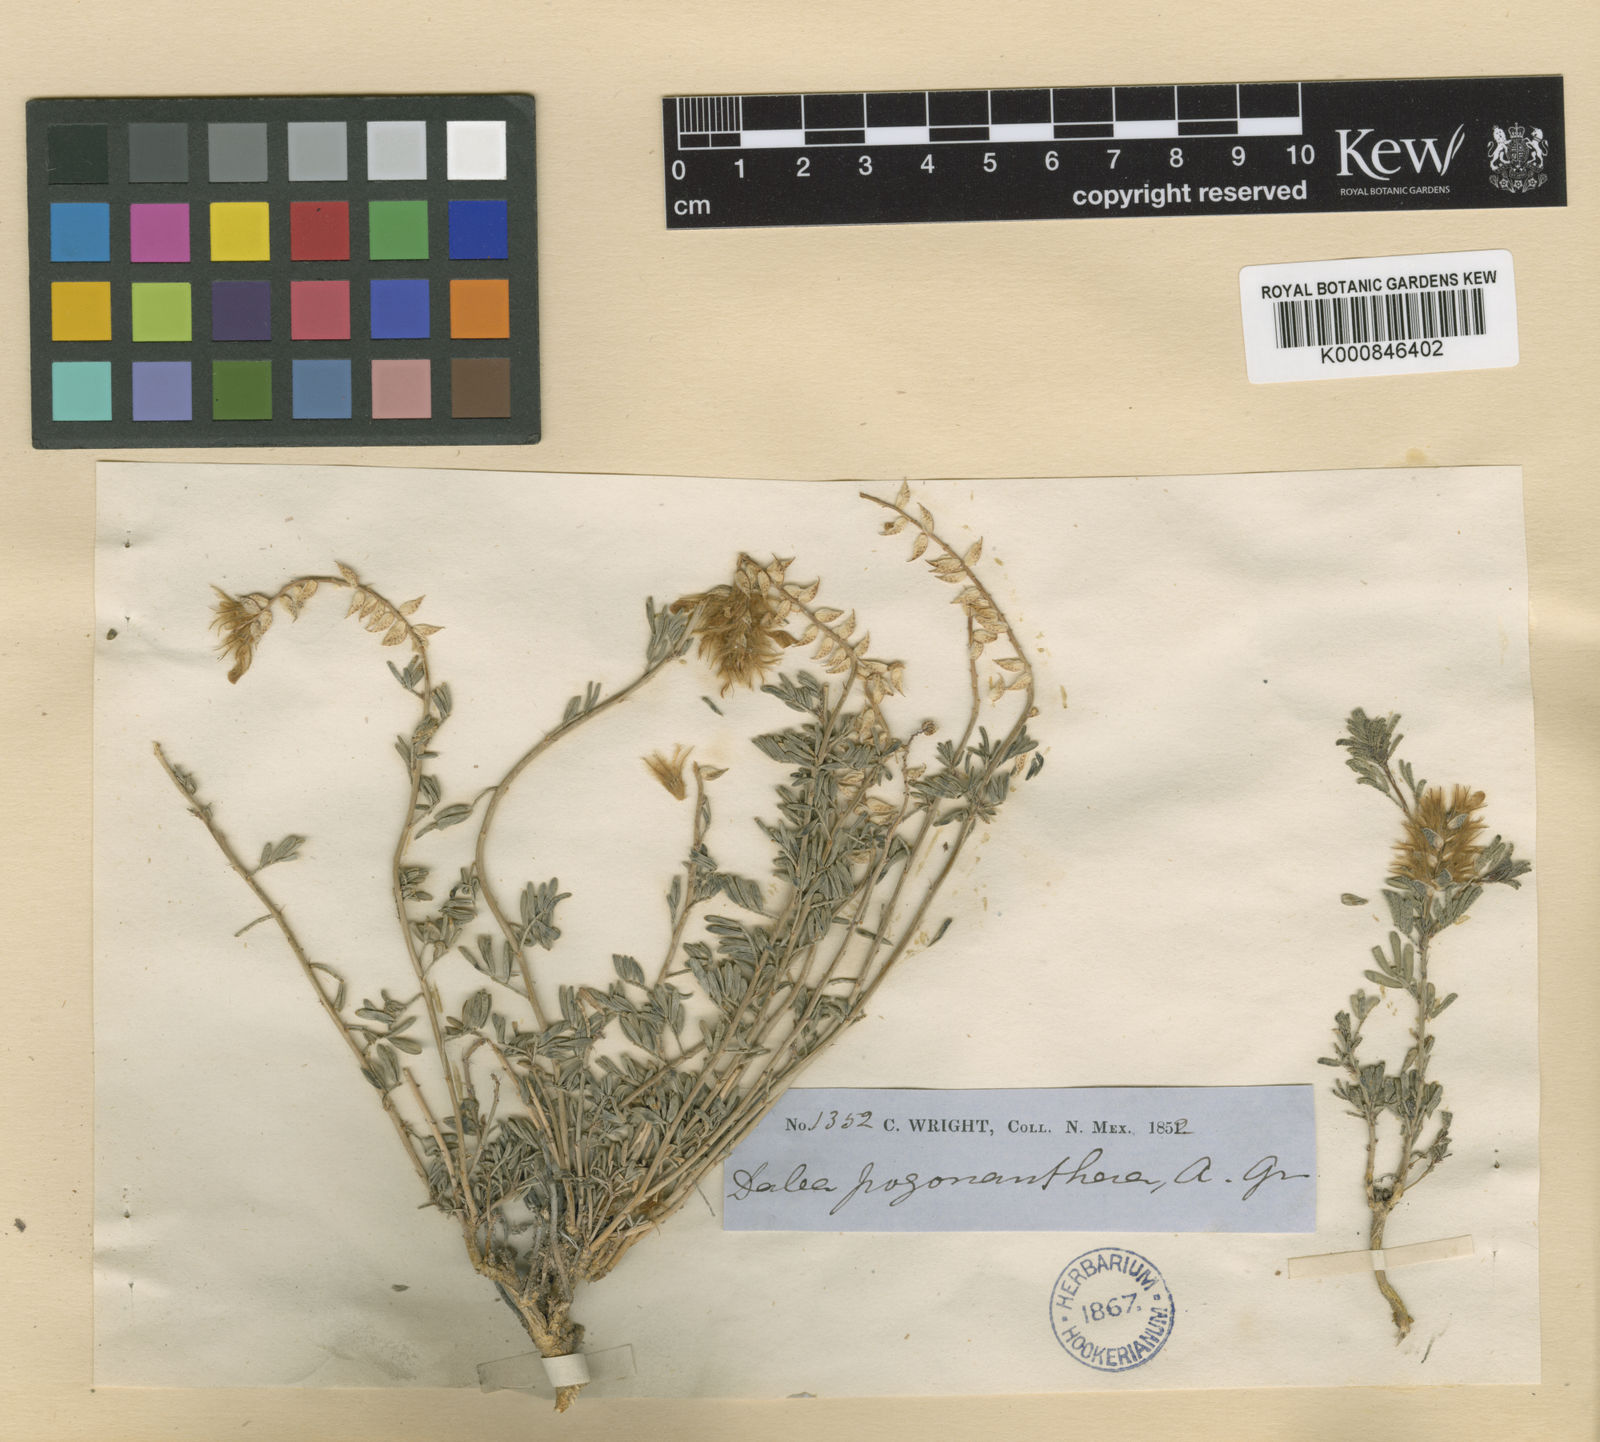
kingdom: Plantae
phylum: Tracheophyta
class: Magnoliopsida
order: Fabales
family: Fabaceae
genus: Dalea
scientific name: Dalea
